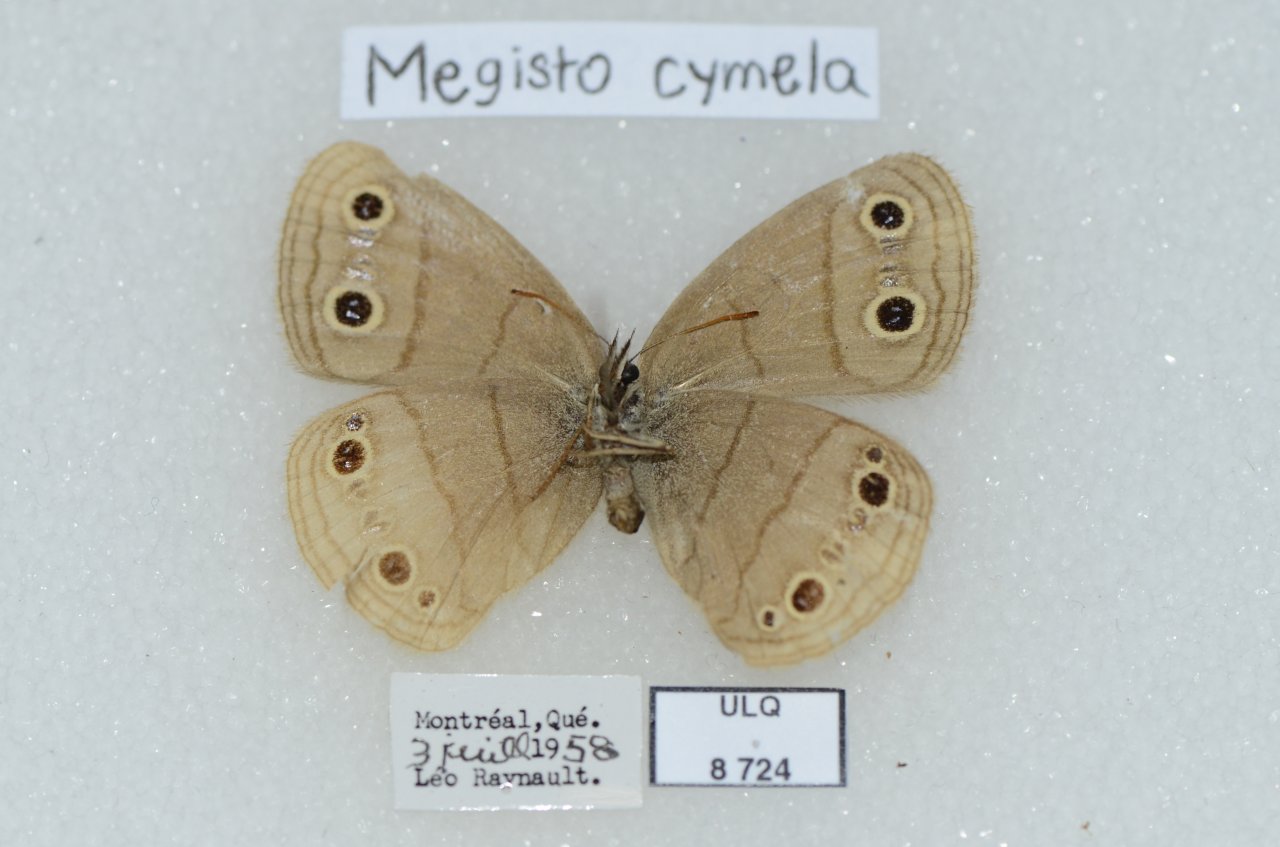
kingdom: Animalia
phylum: Arthropoda
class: Insecta
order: Lepidoptera
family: Nymphalidae
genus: Euptychia
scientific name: Euptychia cymela
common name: Little Wood Satyr
